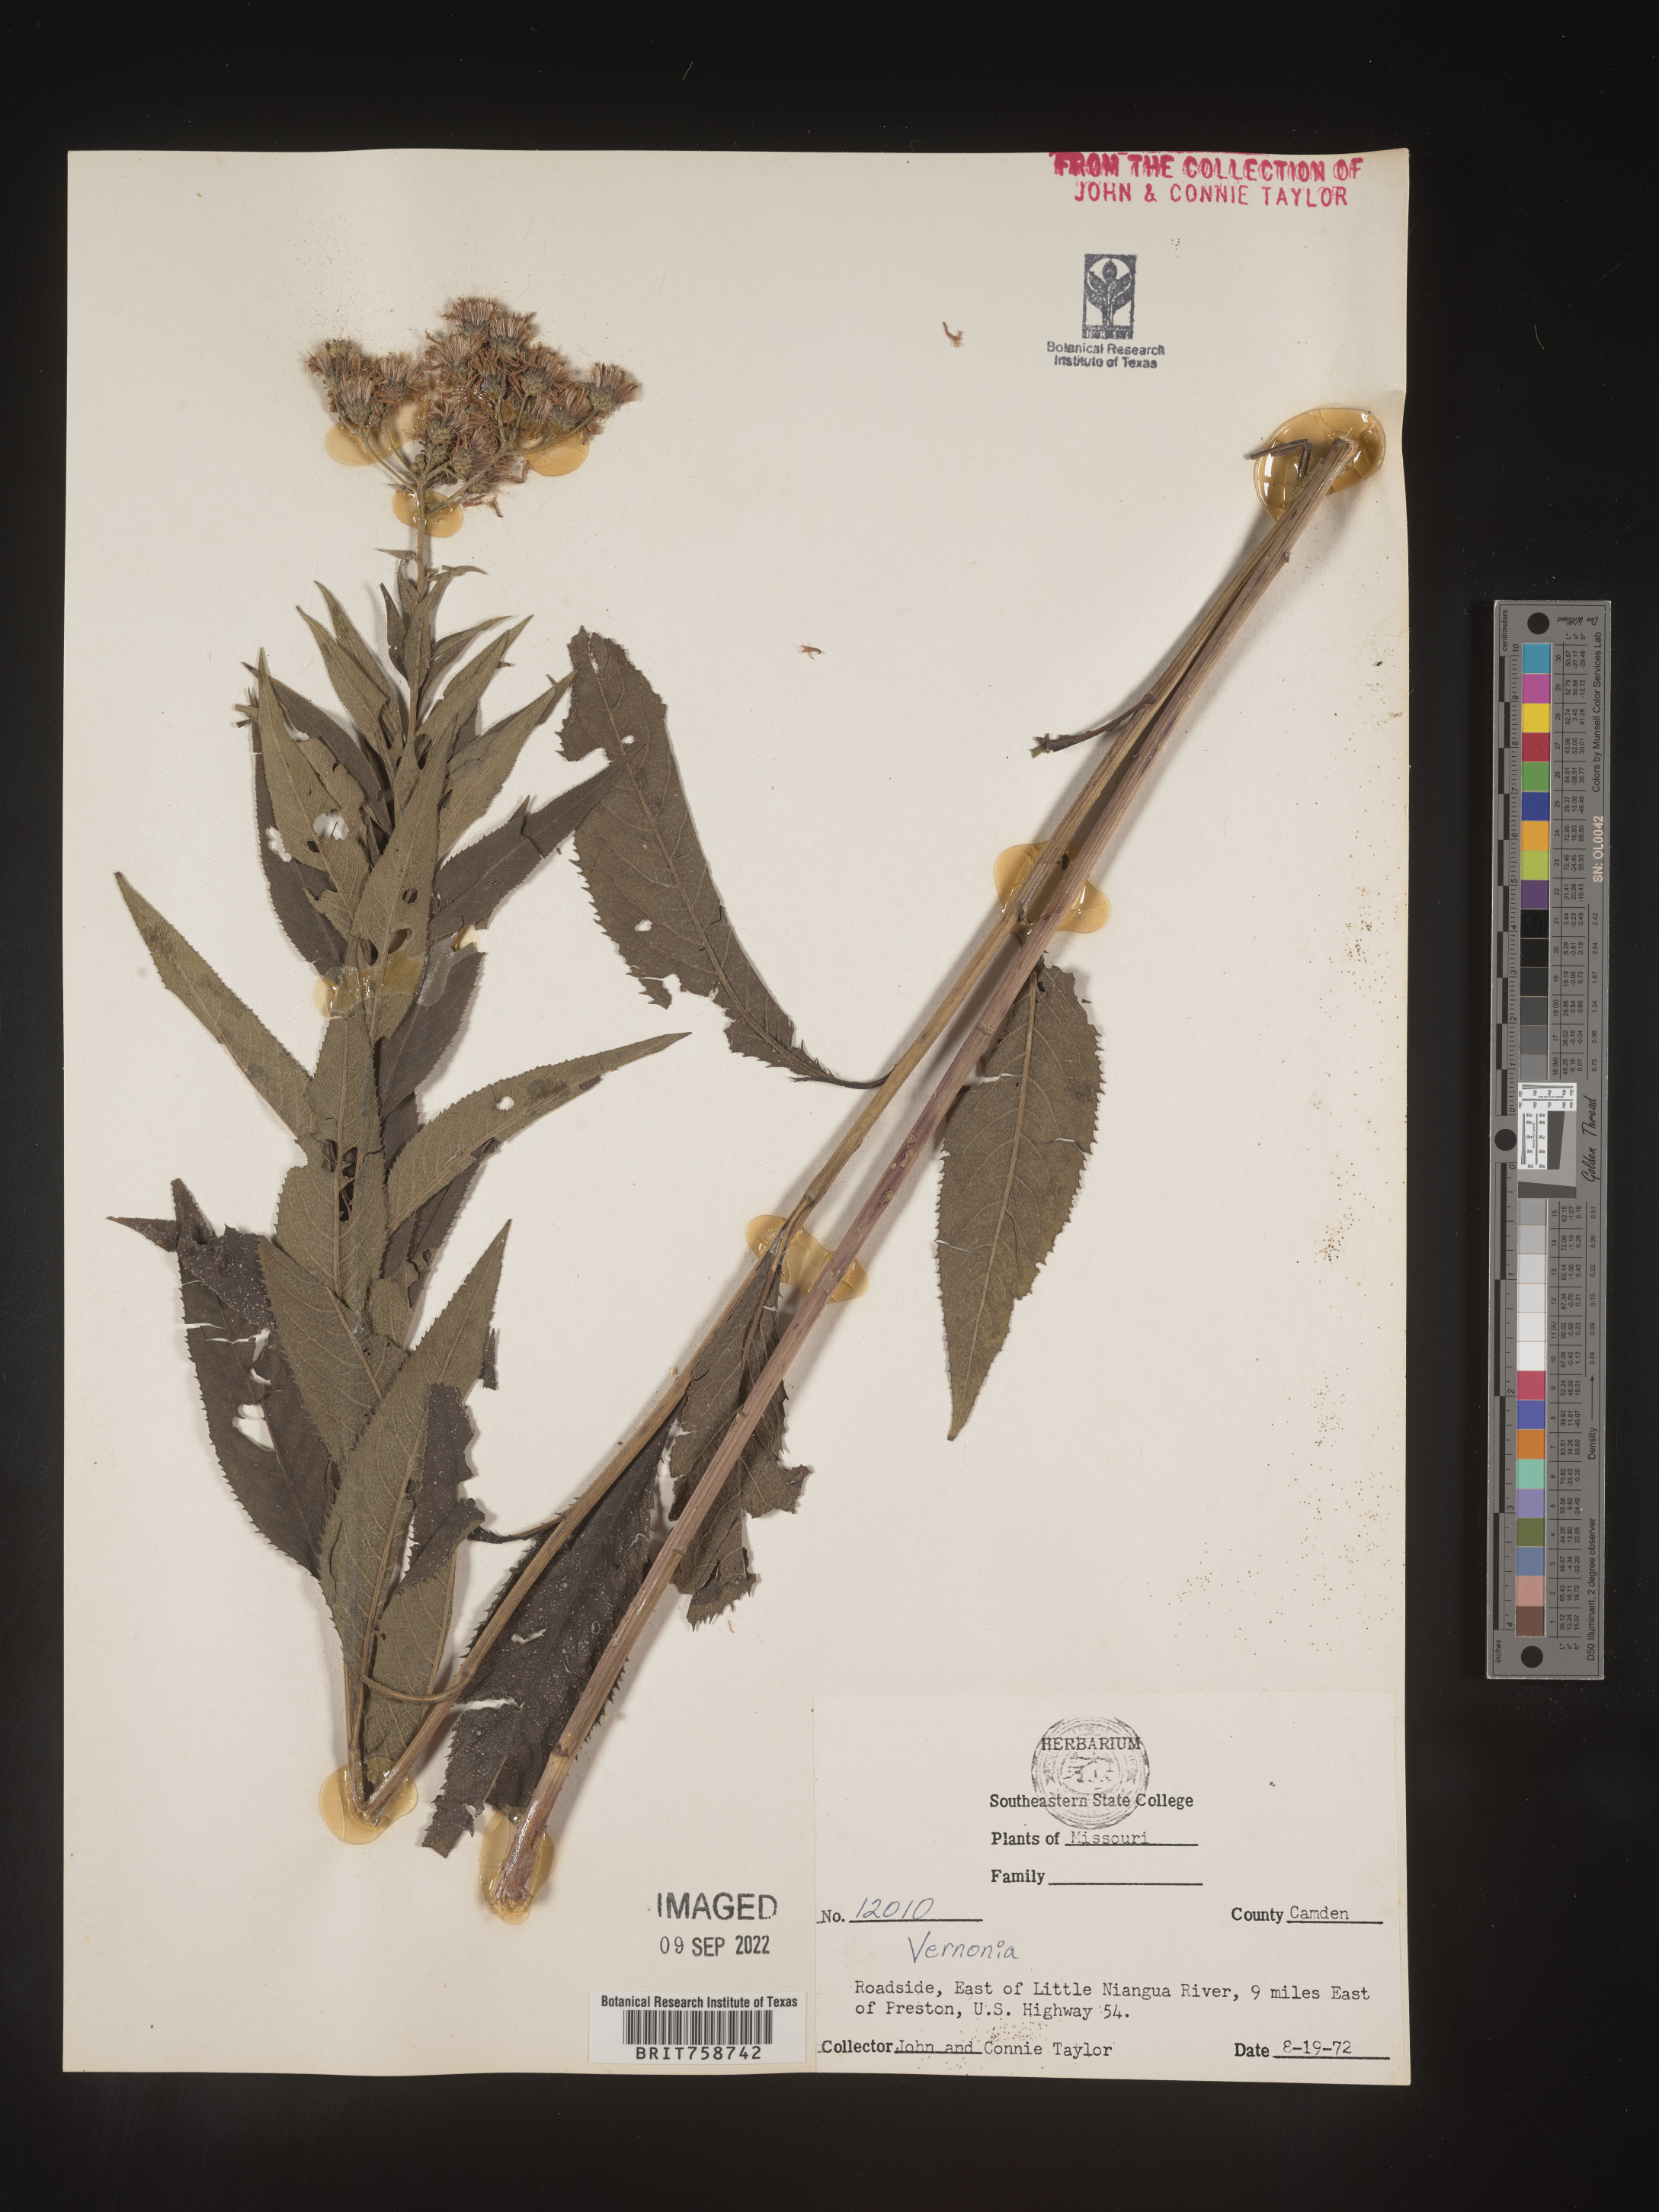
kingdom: Plantae
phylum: Tracheophyta
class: Magnoliopsida
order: Asterales
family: Asteraceae
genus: Vernonia
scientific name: Vernonia
